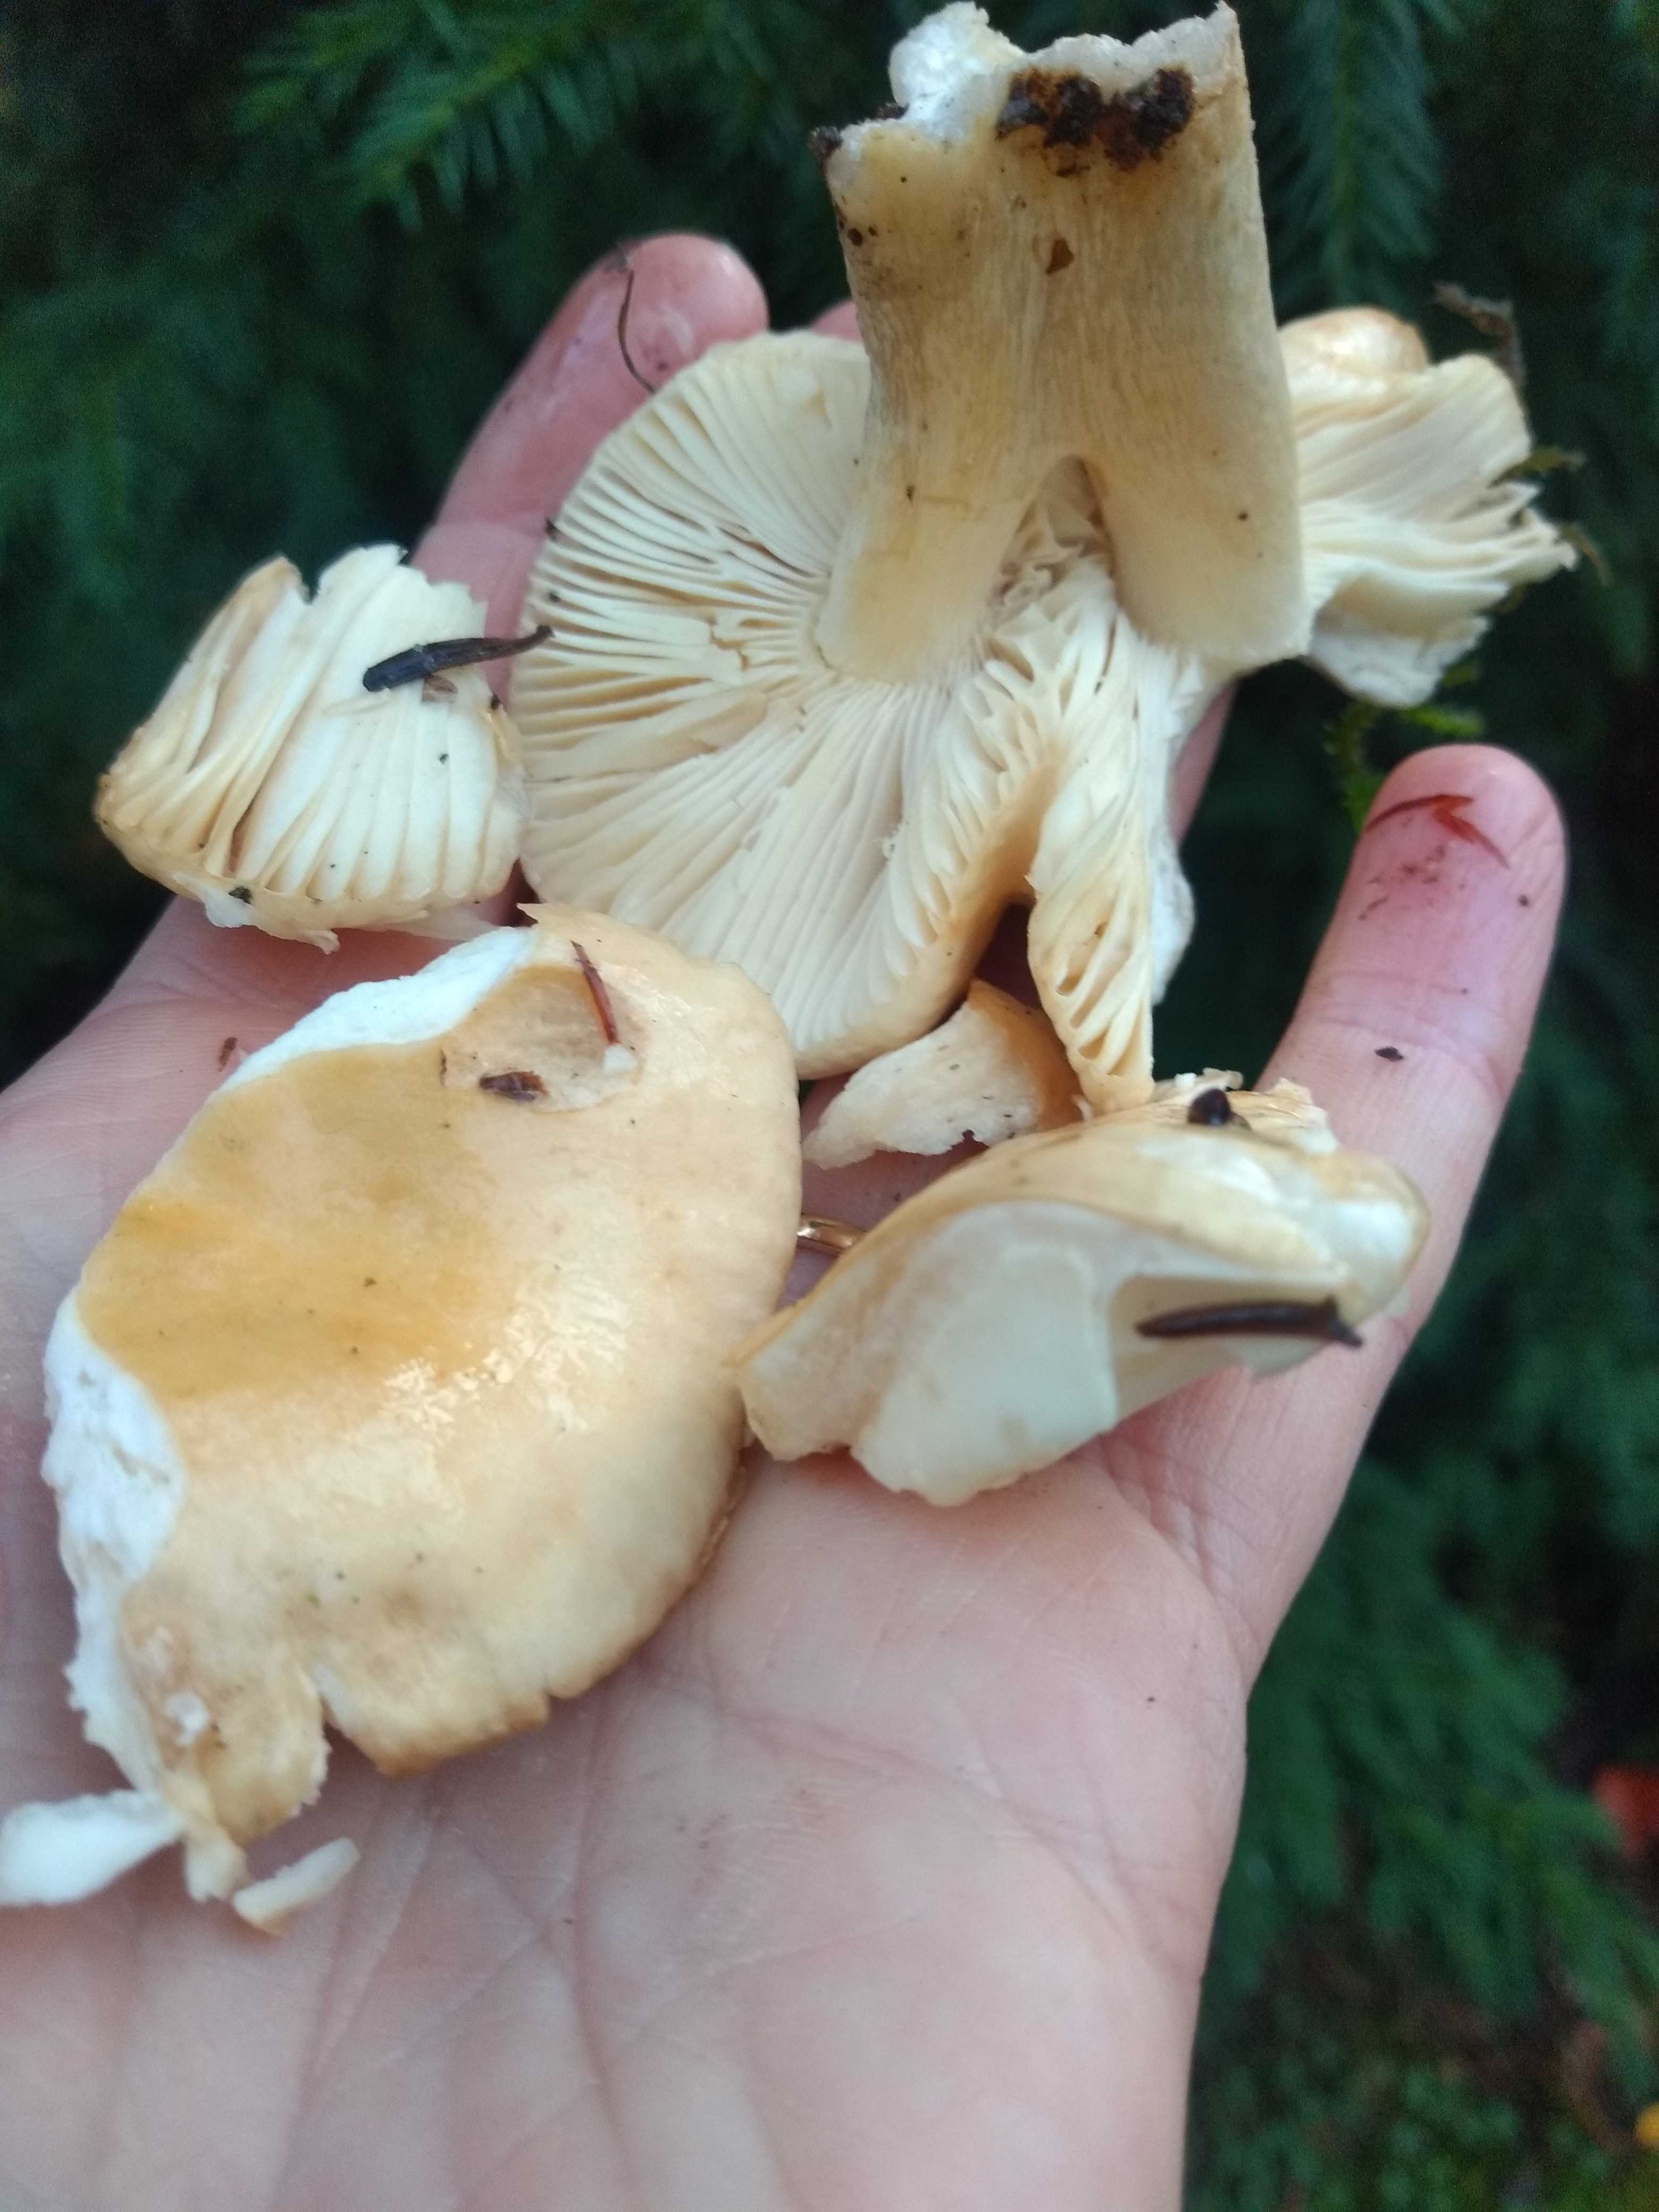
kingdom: Fungi
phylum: Basidiomycota
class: Agaricomycetes
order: Russulales
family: Russulaceae
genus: Russula
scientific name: Russula
